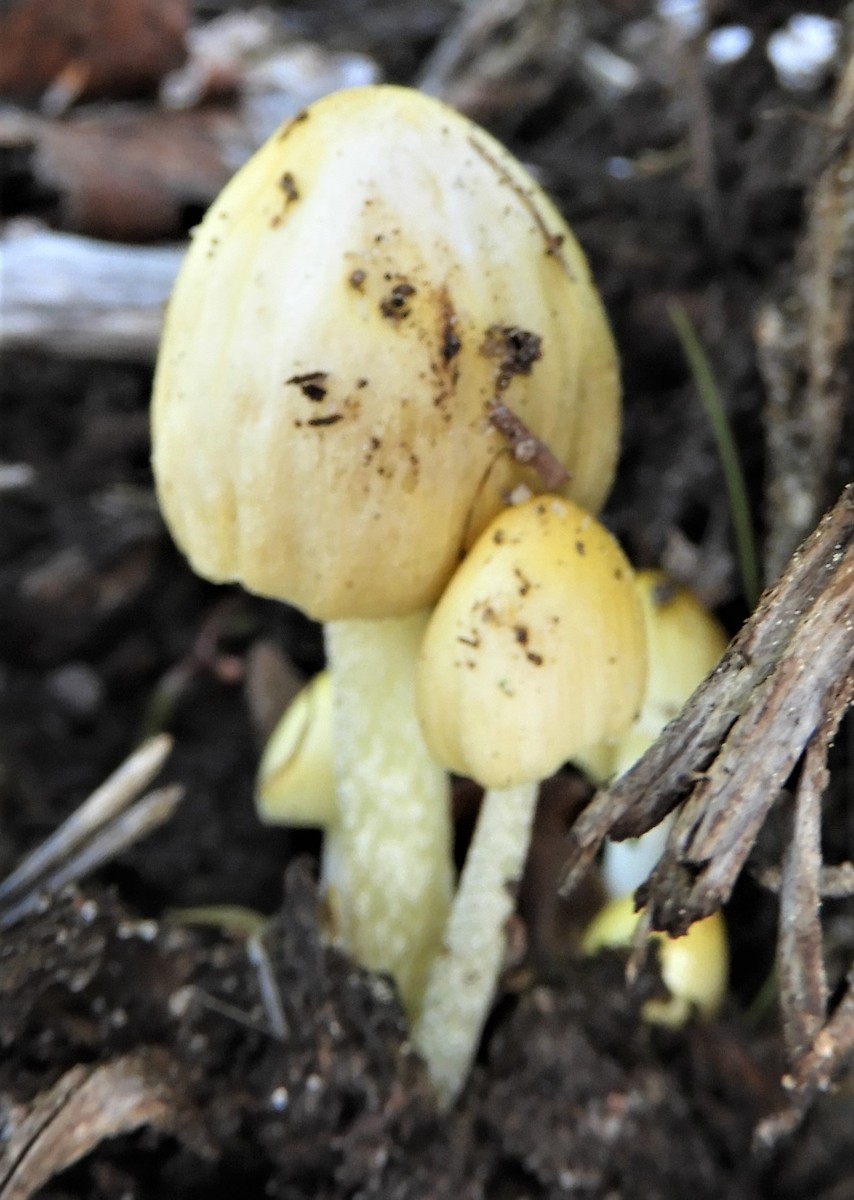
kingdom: Fungi
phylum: Basidiomycota
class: Agaricomycetes
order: Agaricales
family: Bolbitiaceae
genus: Bolbitius
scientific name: Bolbitius titubans
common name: almindelig gulhat
